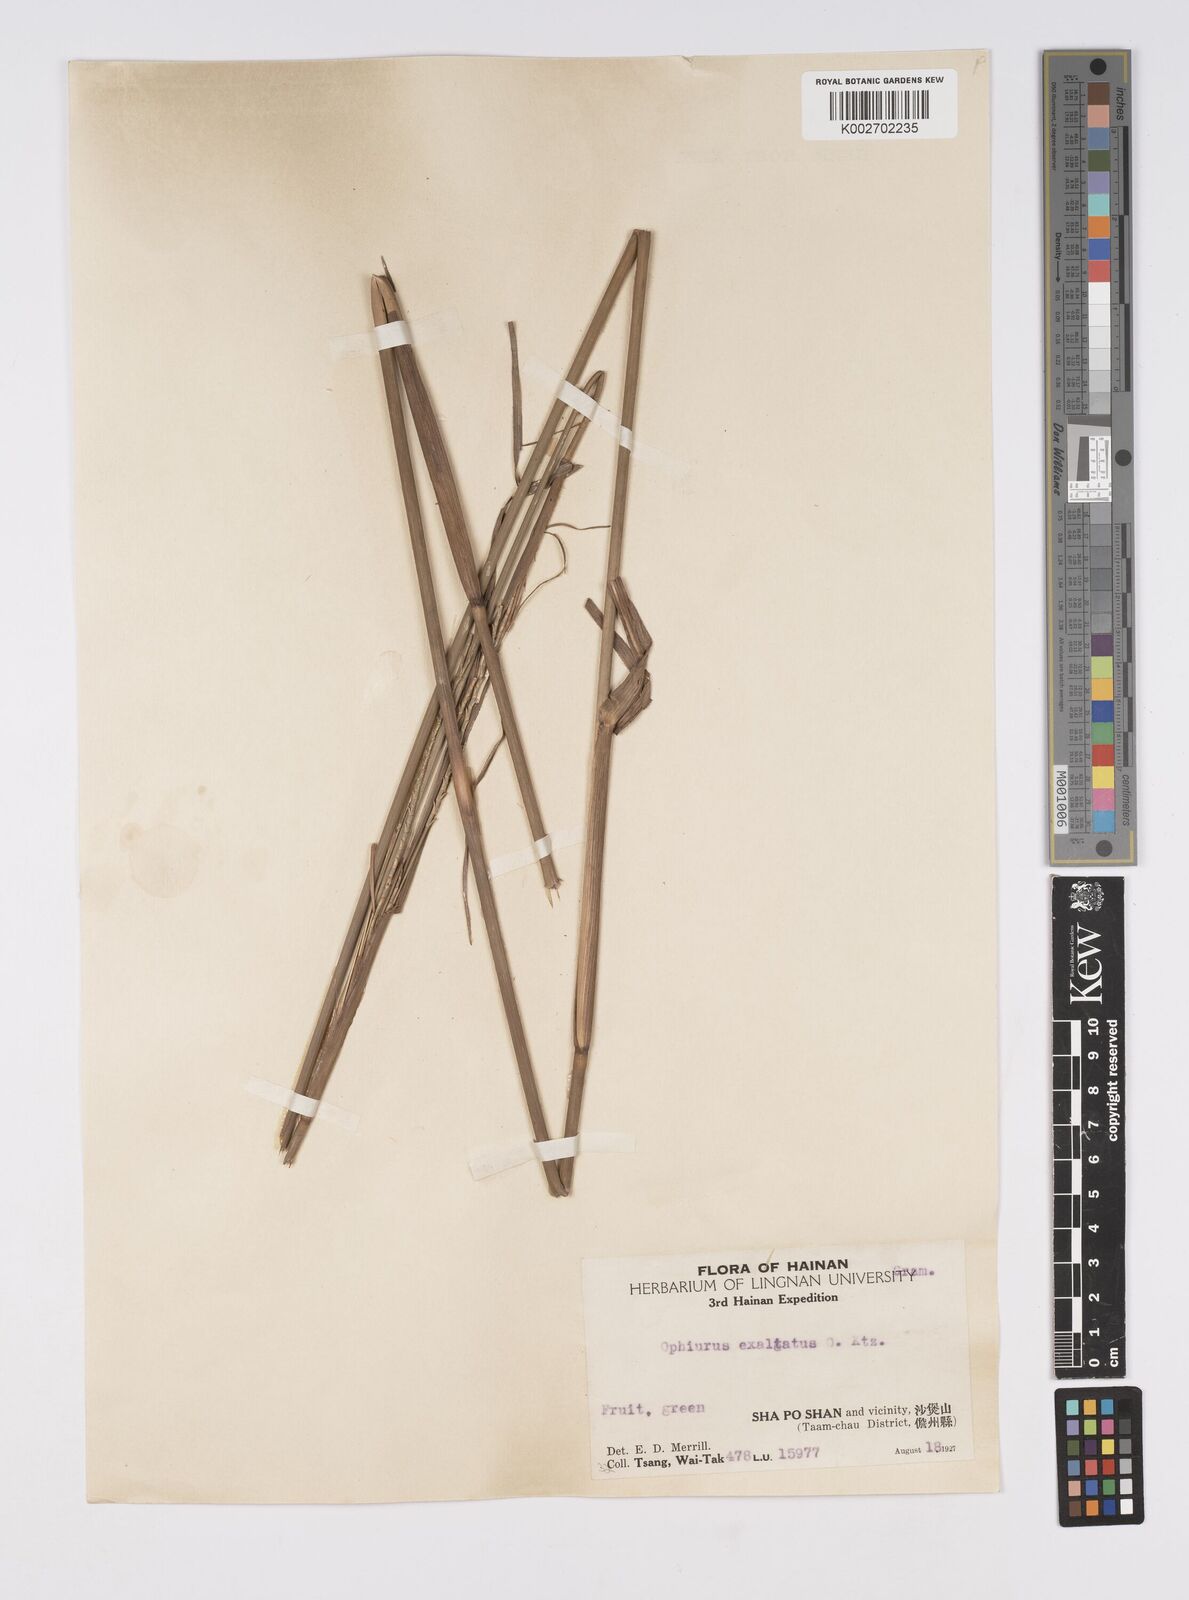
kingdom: Plantae
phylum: Tracheophyta
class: Liliopsida
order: Poales
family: Poaceae
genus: Ophiuros
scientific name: Ophiuros exaltatus
